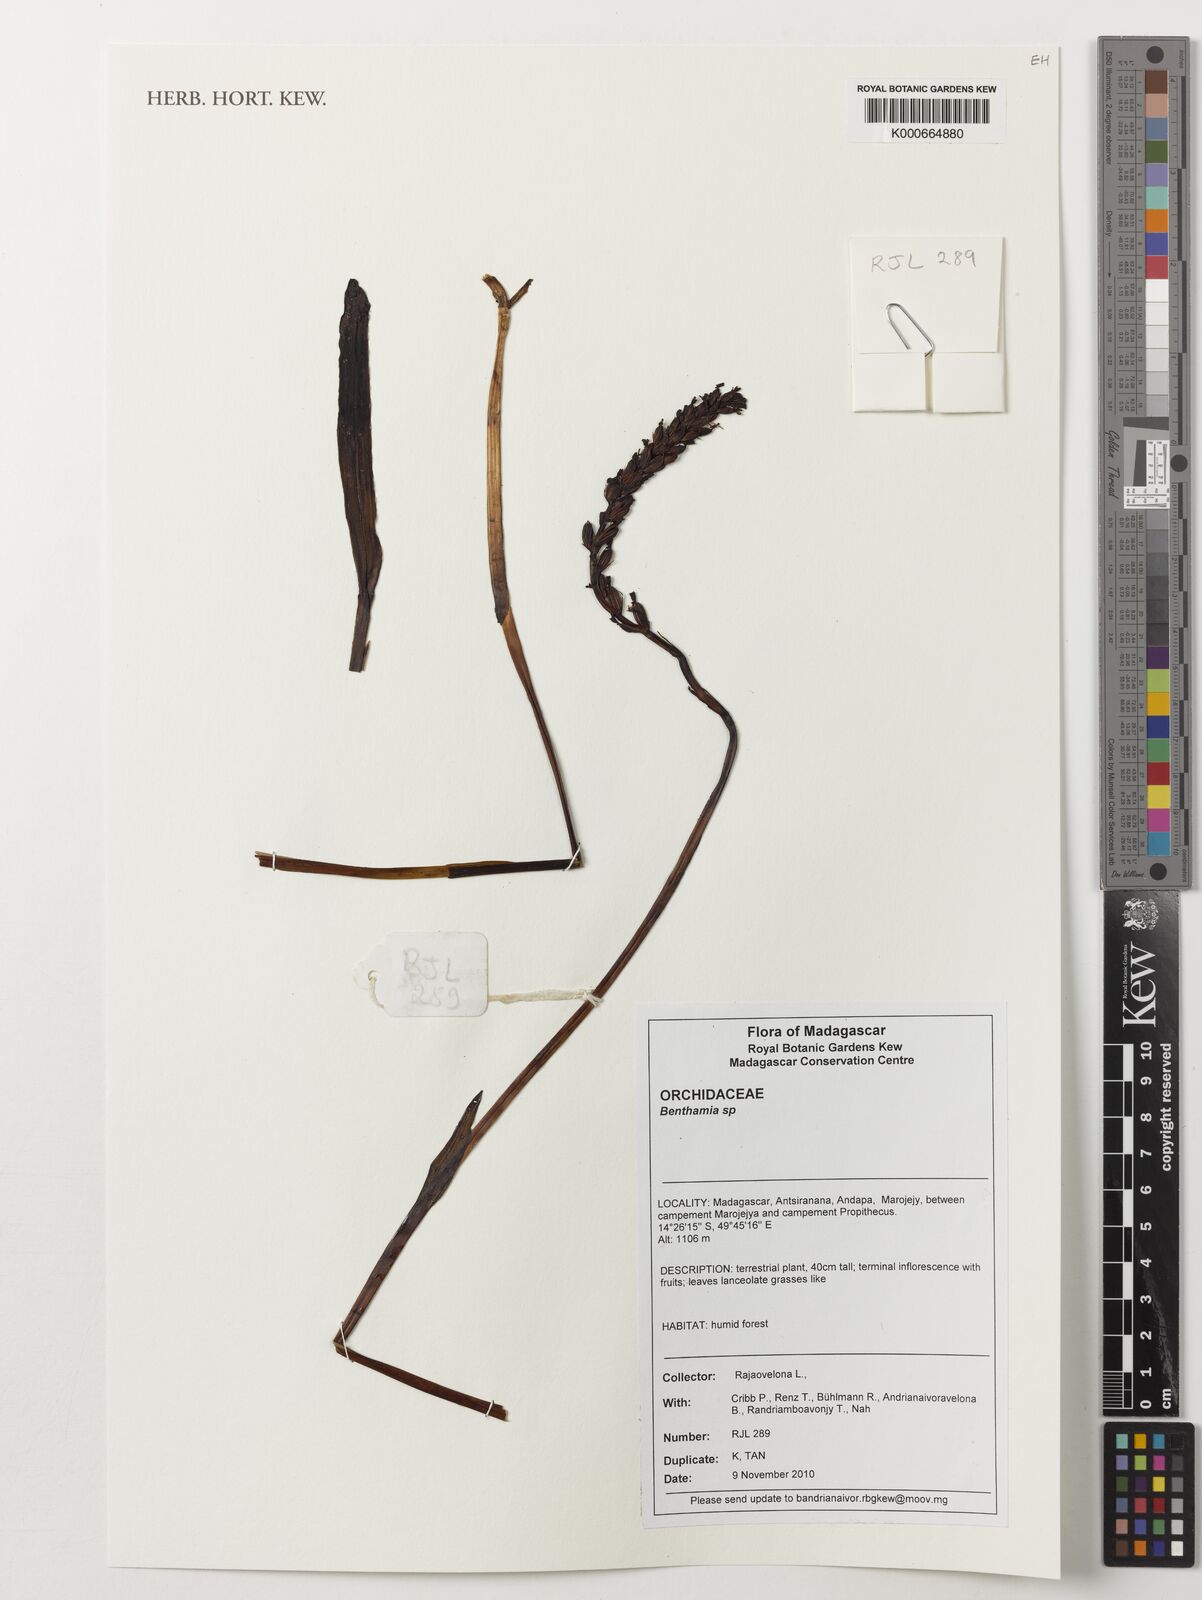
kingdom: Plantae
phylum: Tracheophyta
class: Liliopsida
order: Asparagales
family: Orchidaceae
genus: Benthamia
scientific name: Benthamia
